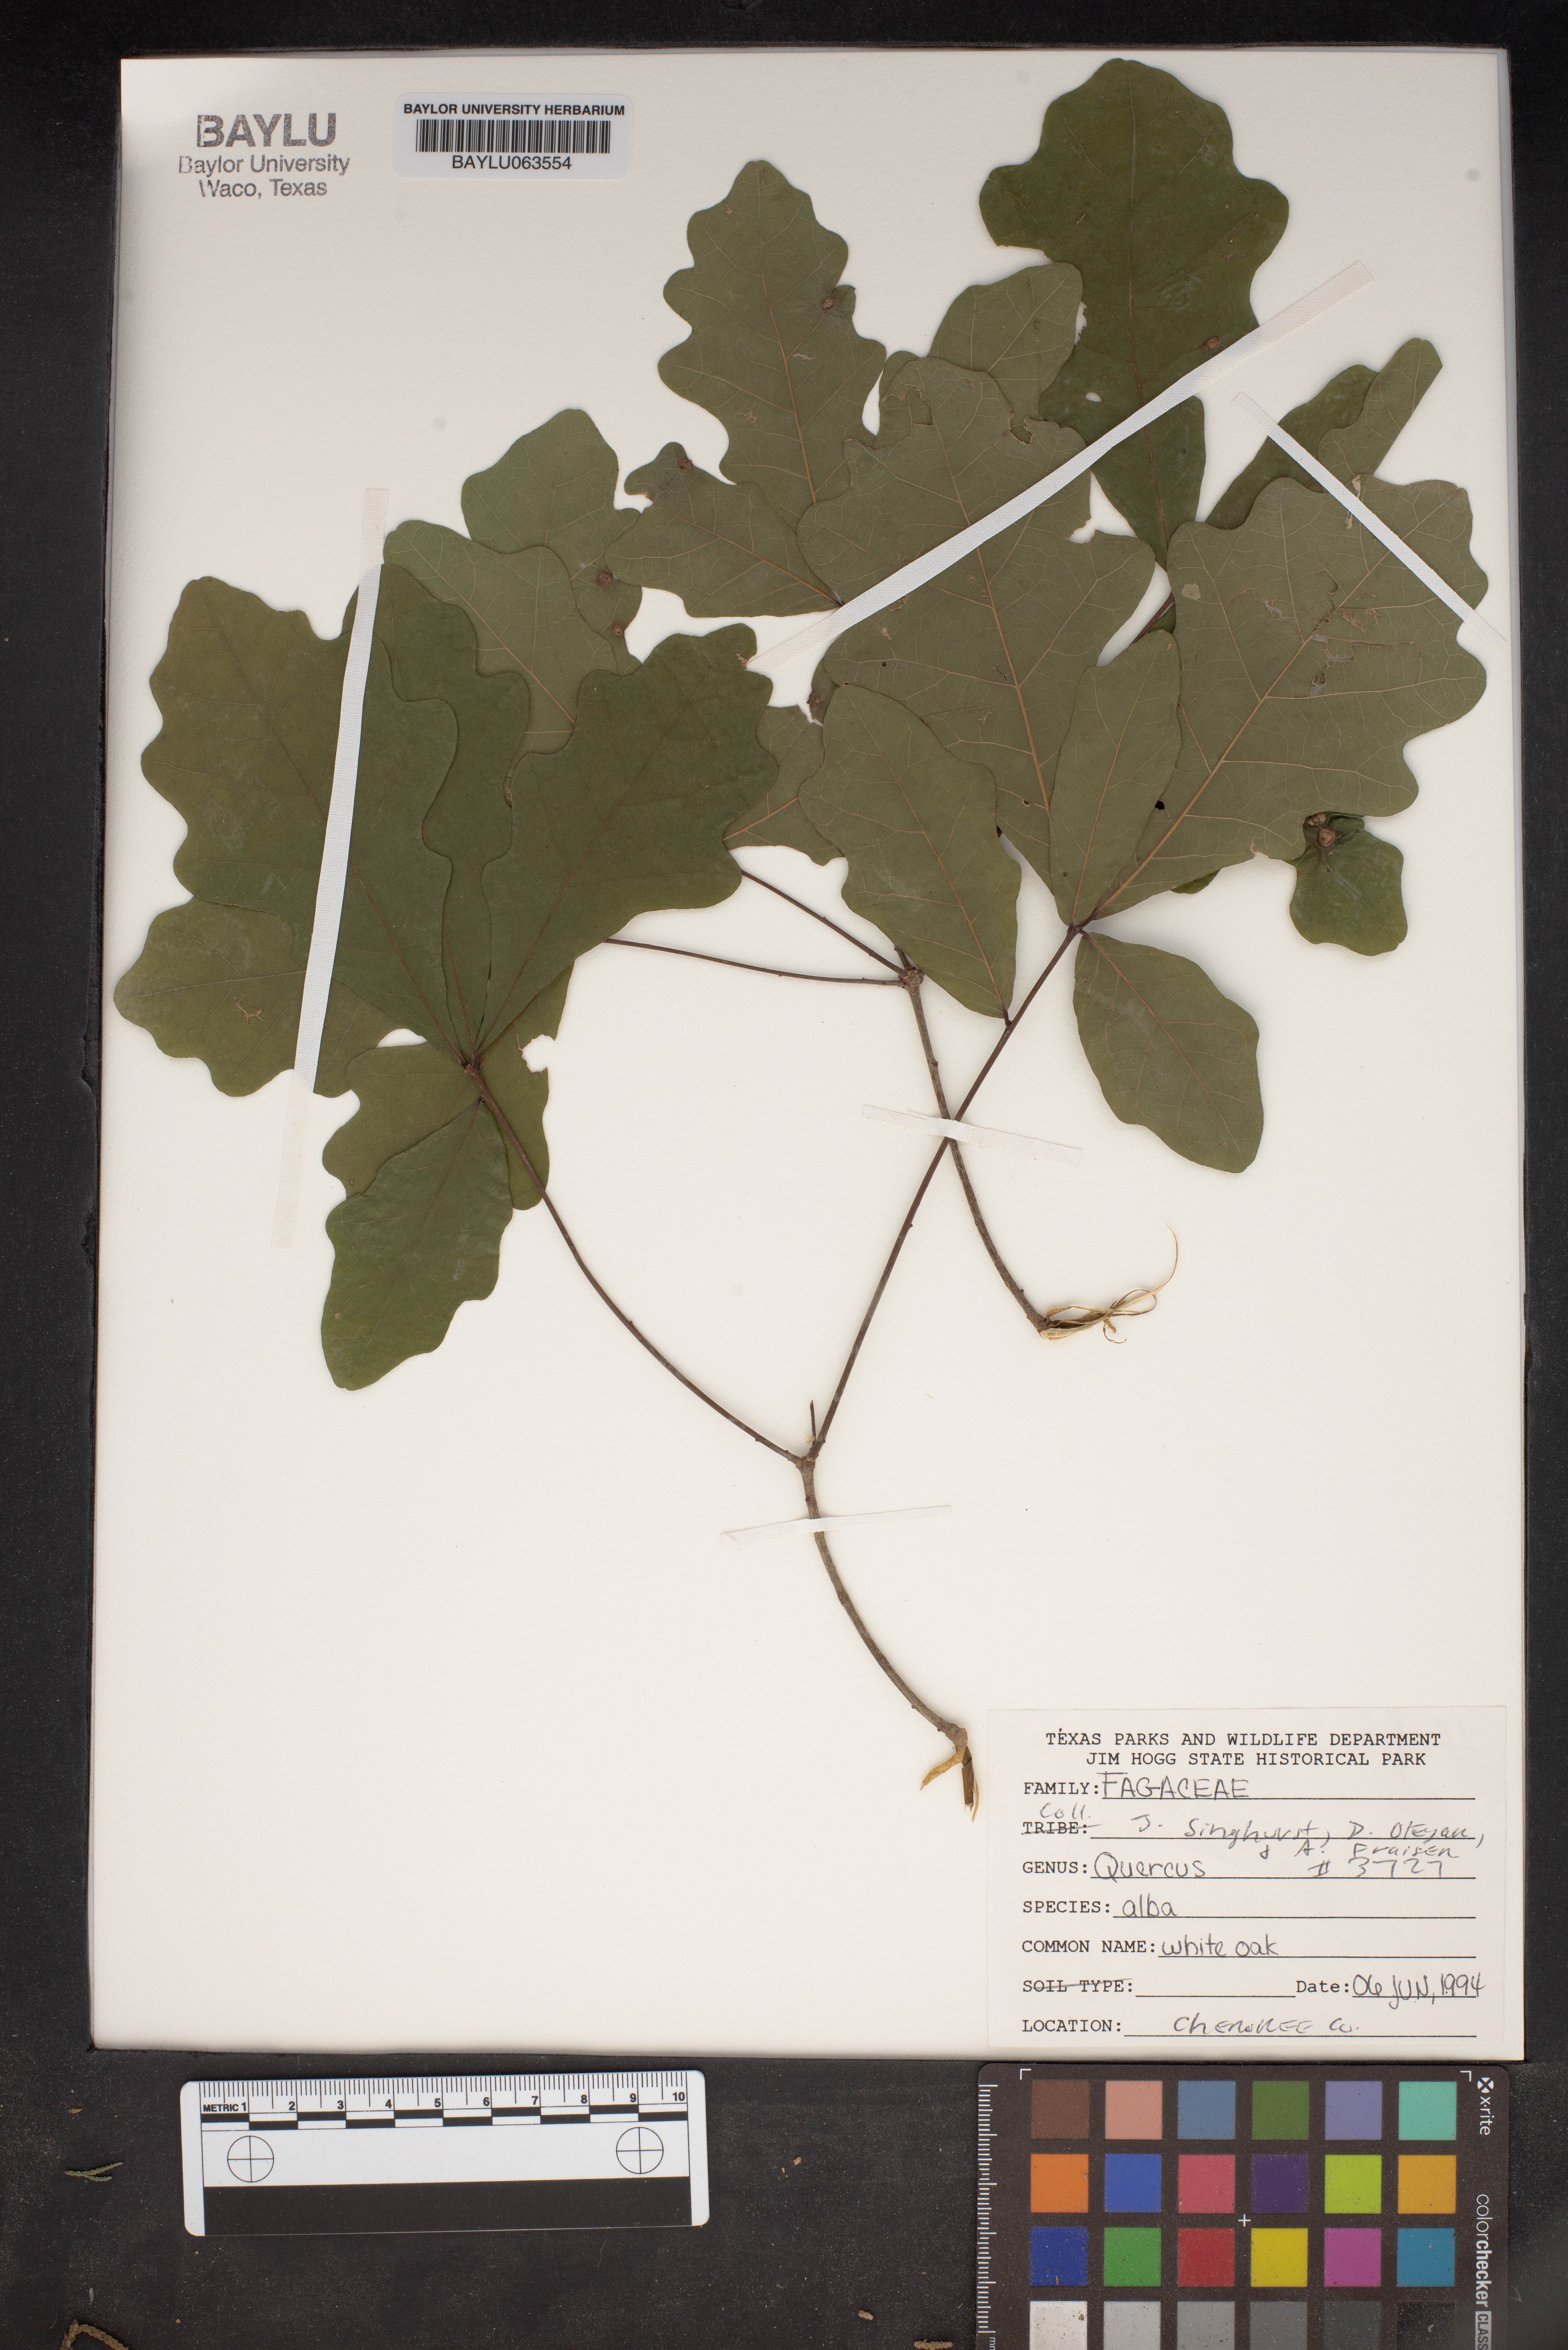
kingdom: Plantae
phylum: Tracheophyta
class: Magnoliopsida
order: Fagales
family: Fagaceae
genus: Quercus
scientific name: Quercus alba
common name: White oak
